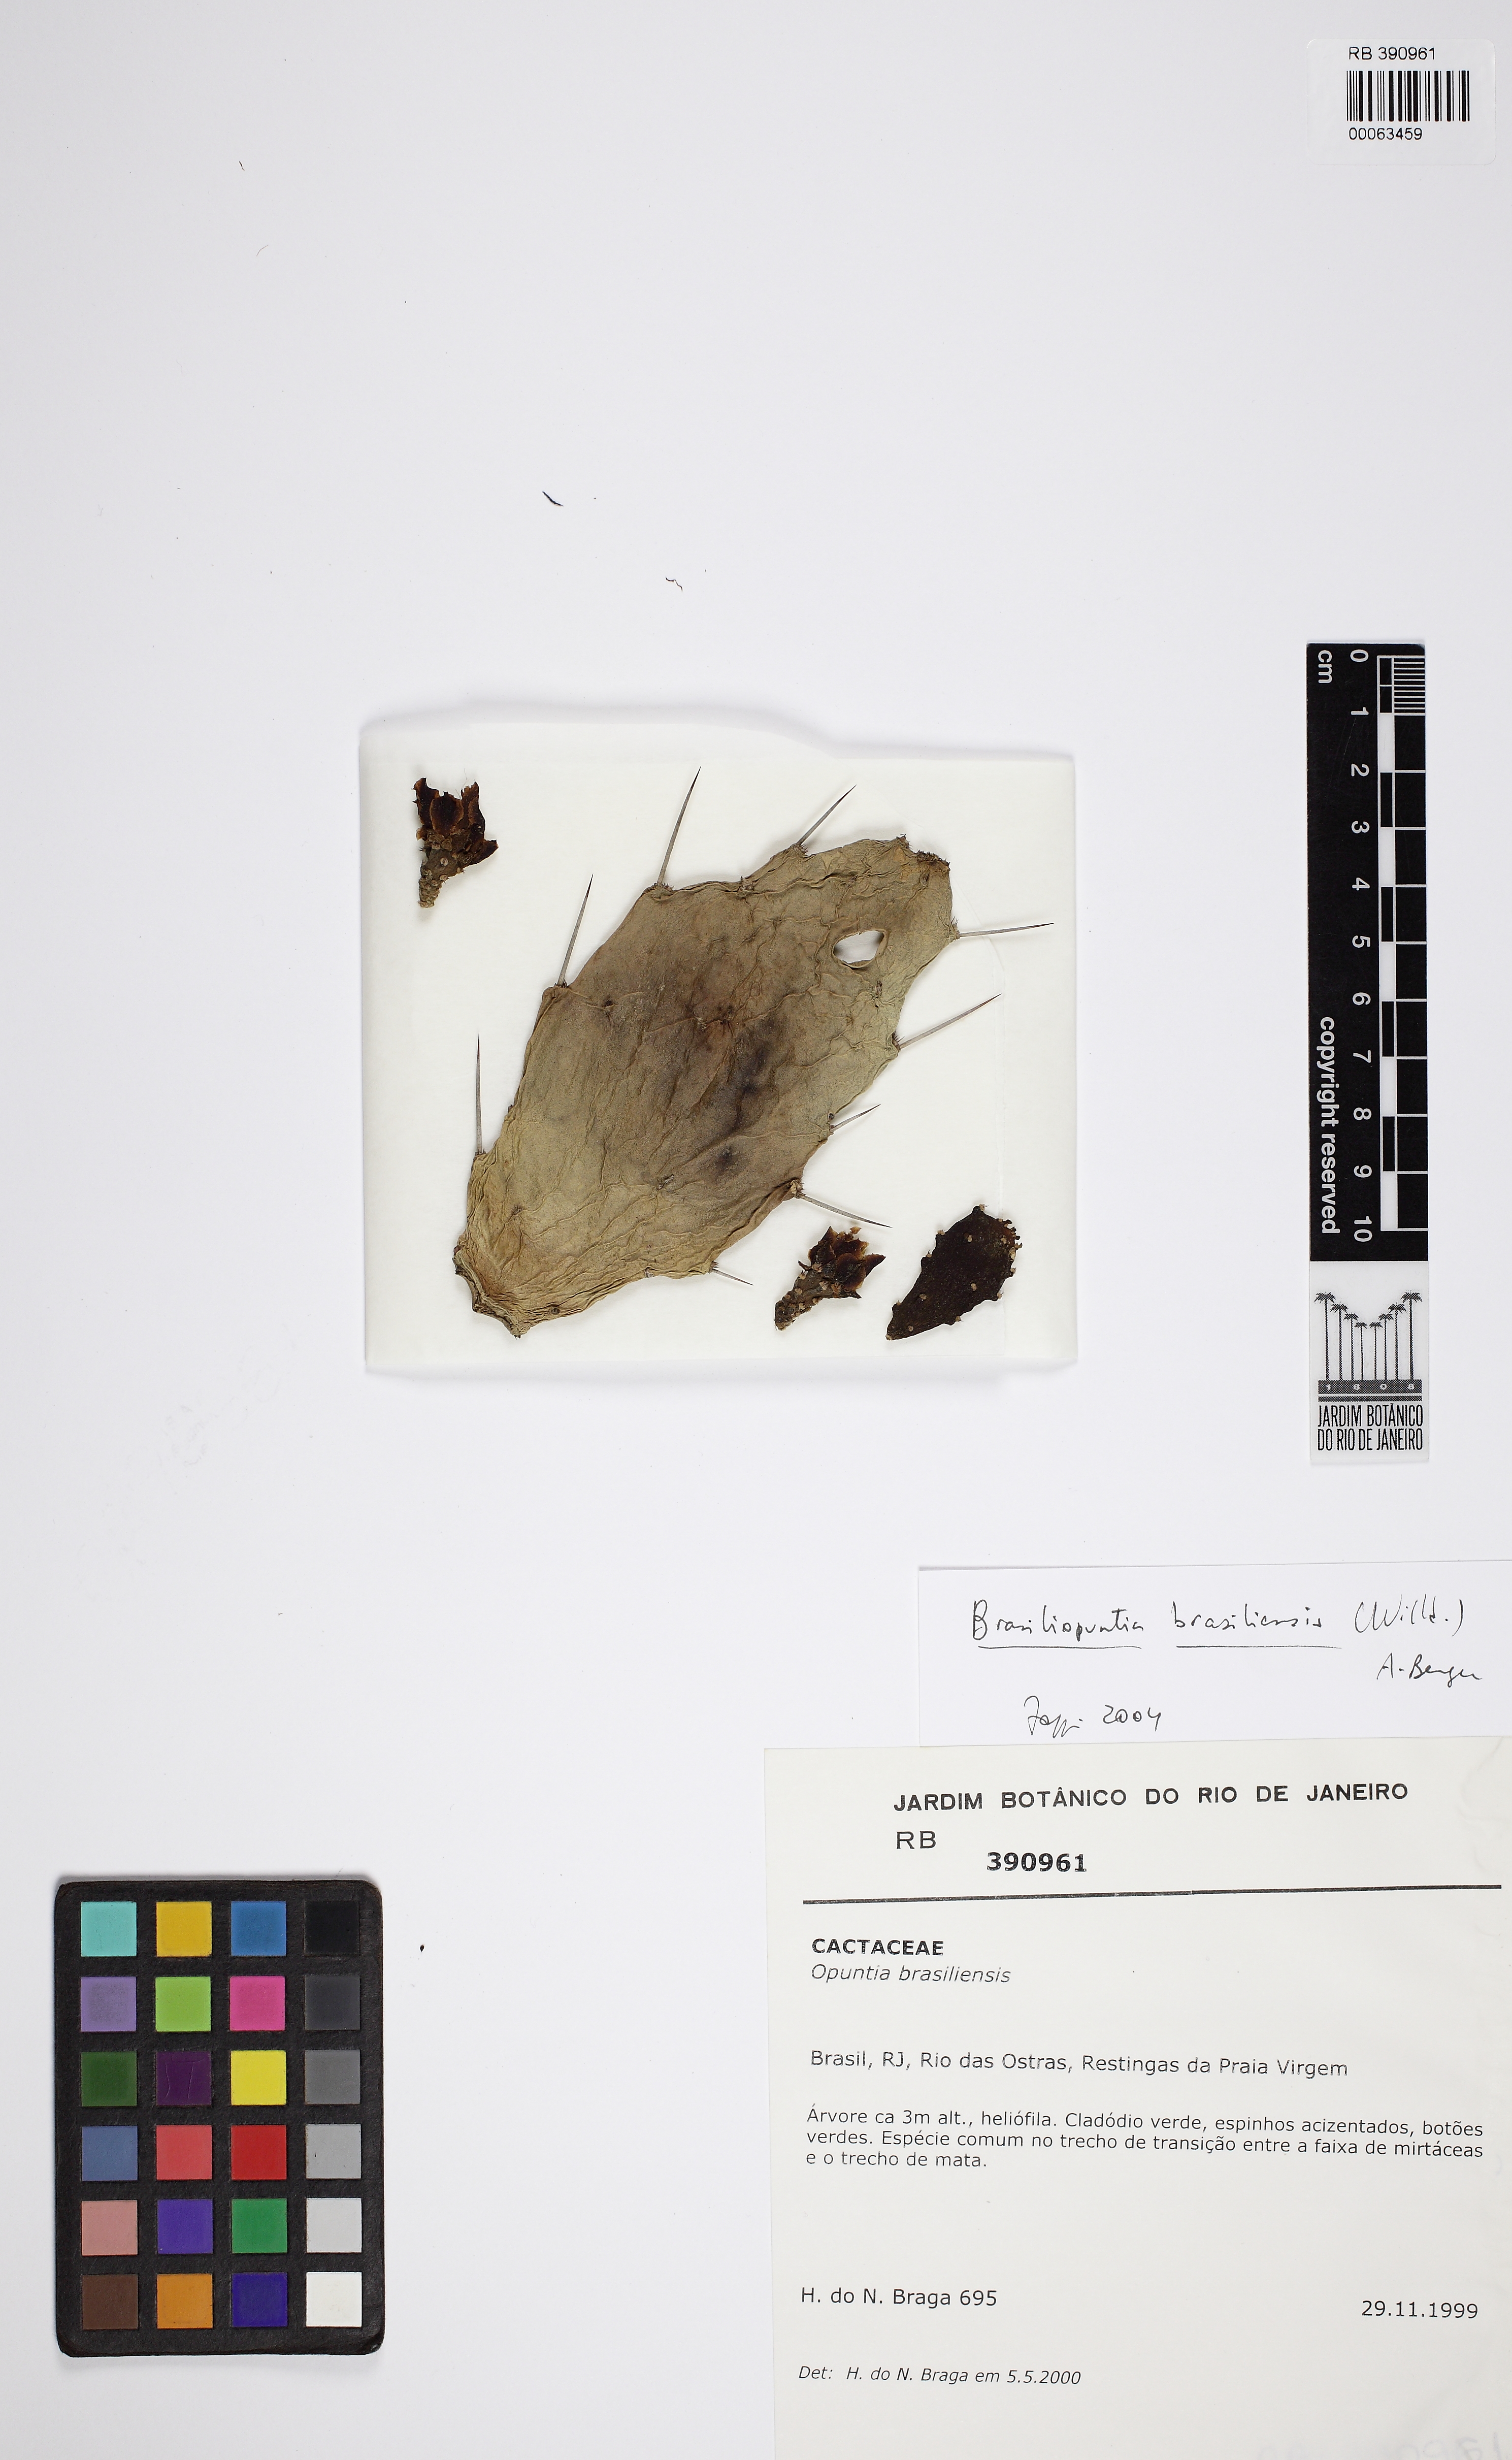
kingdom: Plantae
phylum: Tracheophyta
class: Magnoliopsida
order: Caryophyllales
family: Cactaceae
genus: Brasiliopuntia
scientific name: Brasiliopuntia brasiliensis
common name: Brazilian pricklypear
